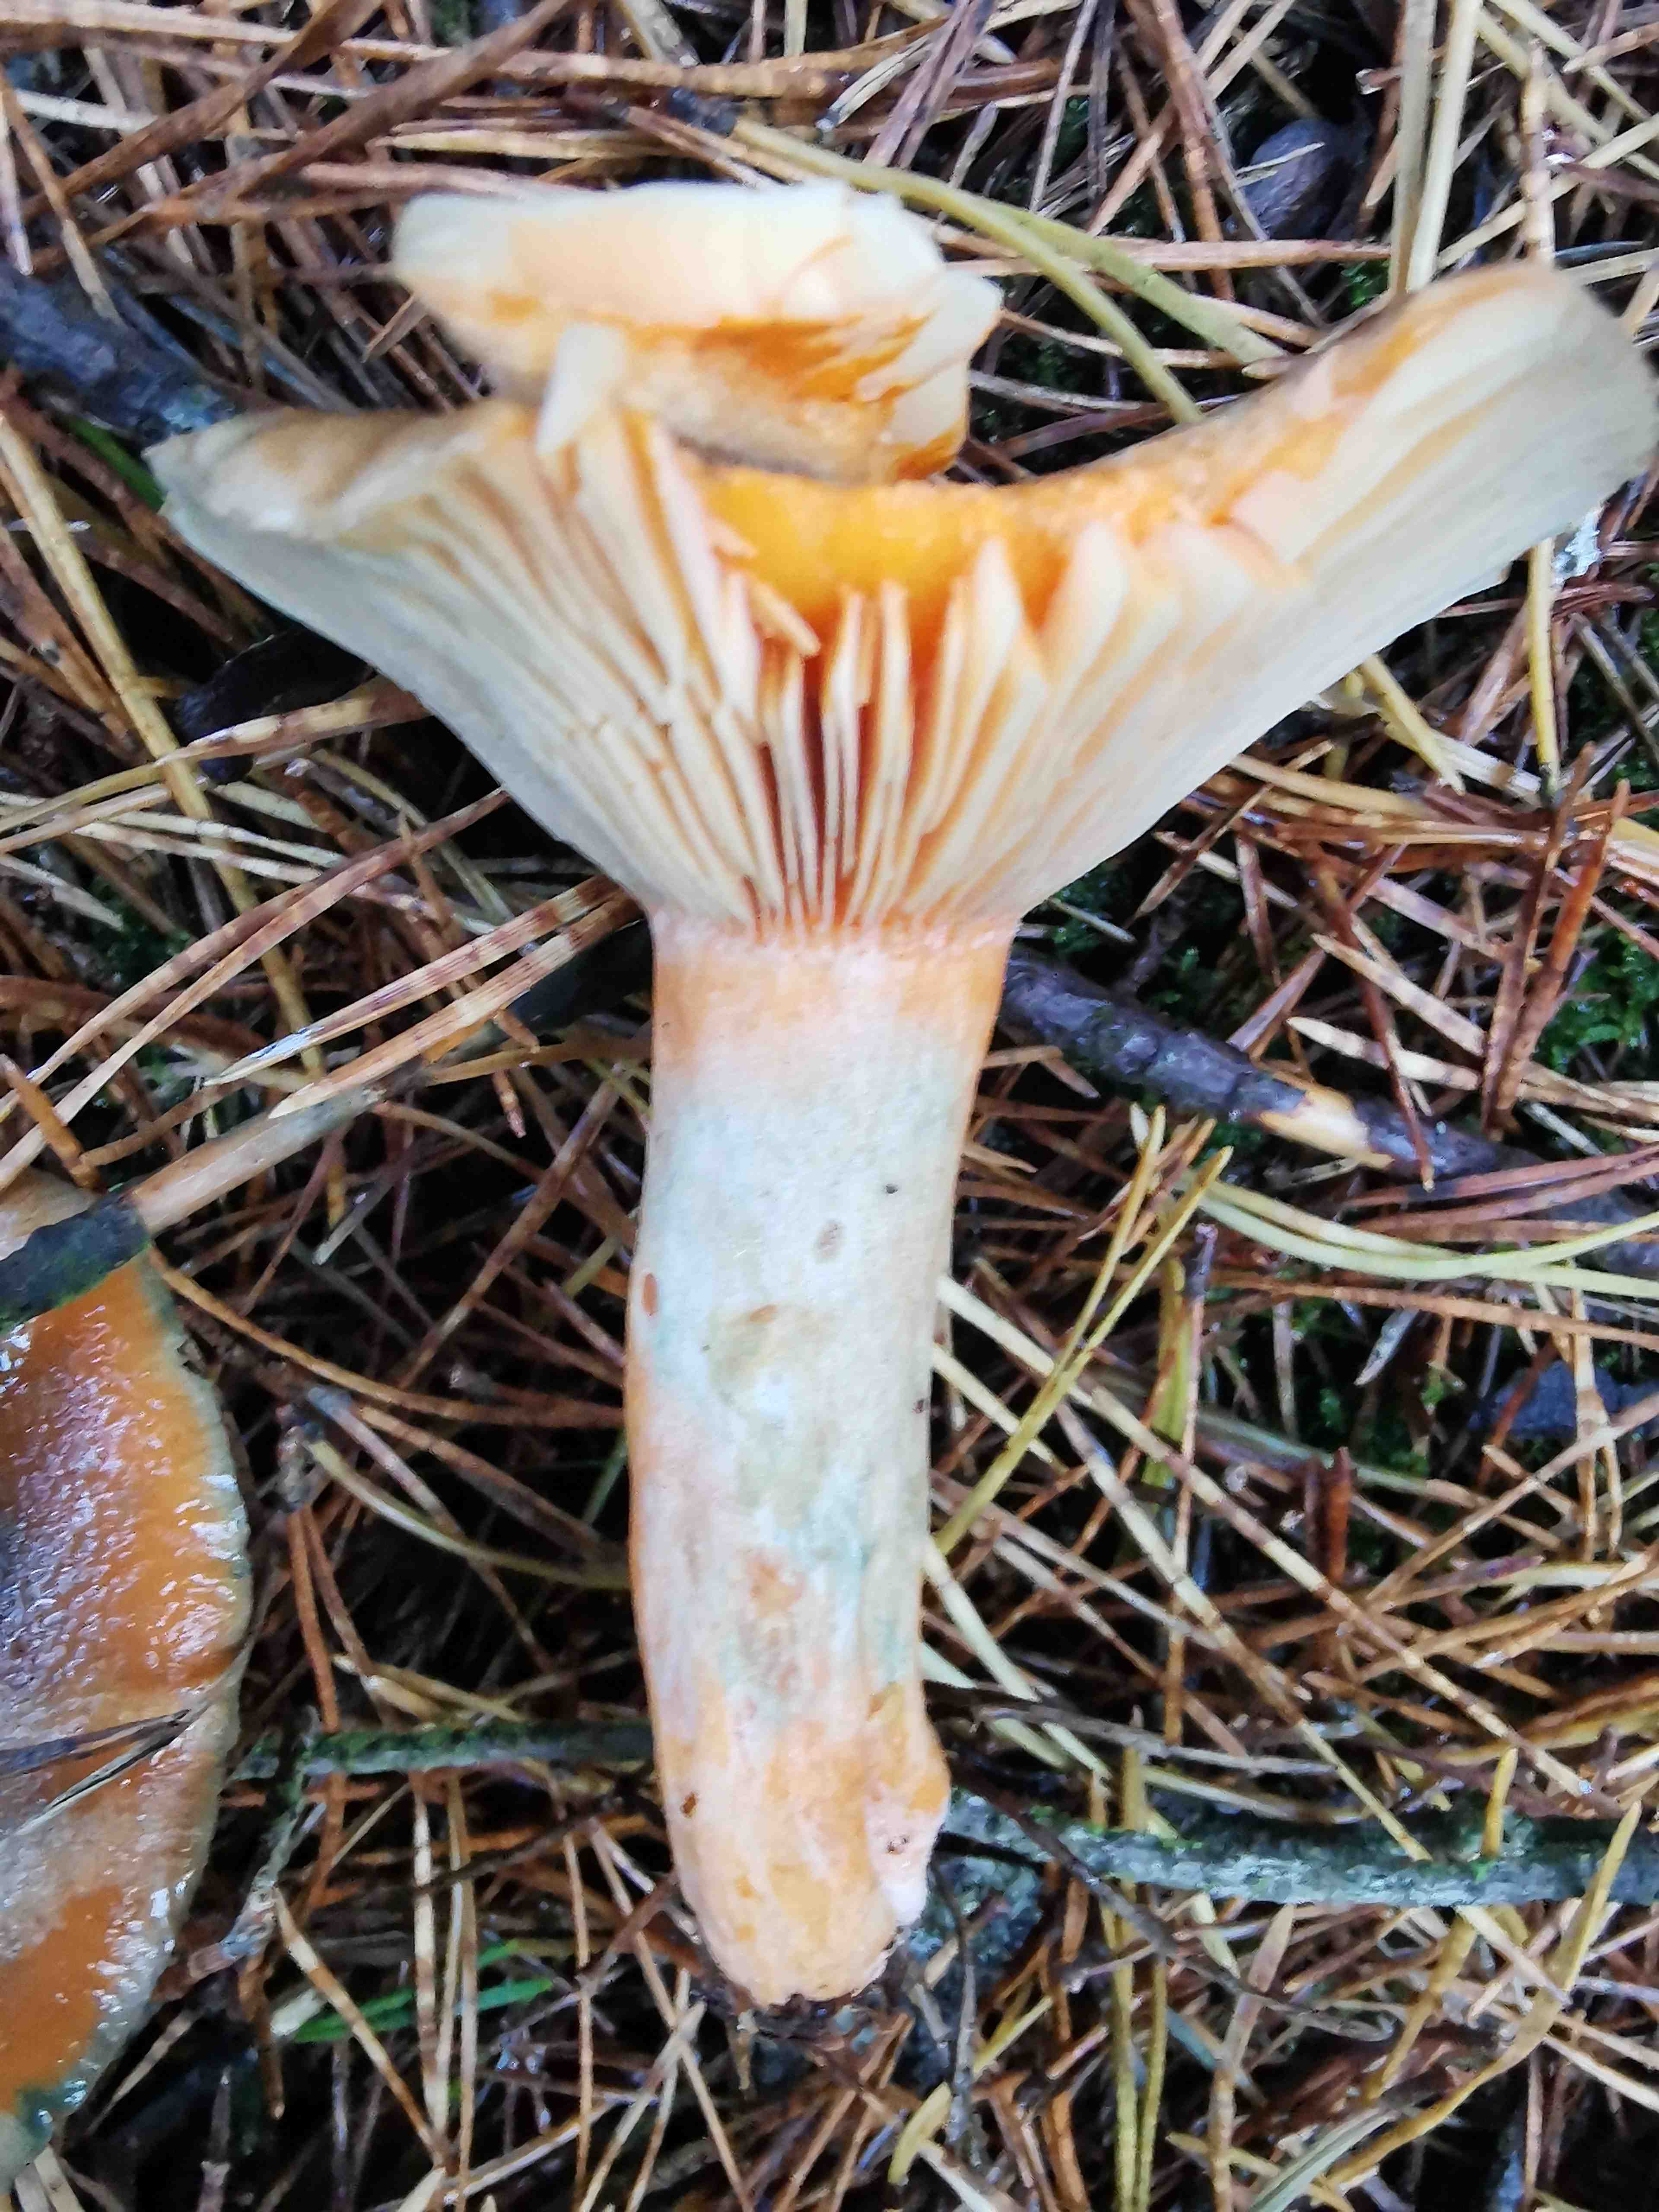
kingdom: Fungi
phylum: Basidiomycota
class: Agaricomycetes
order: Russulales
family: Russulaceae
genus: Lactarius
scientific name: Lactarius deliciosus
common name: velsmagende mælkehat
